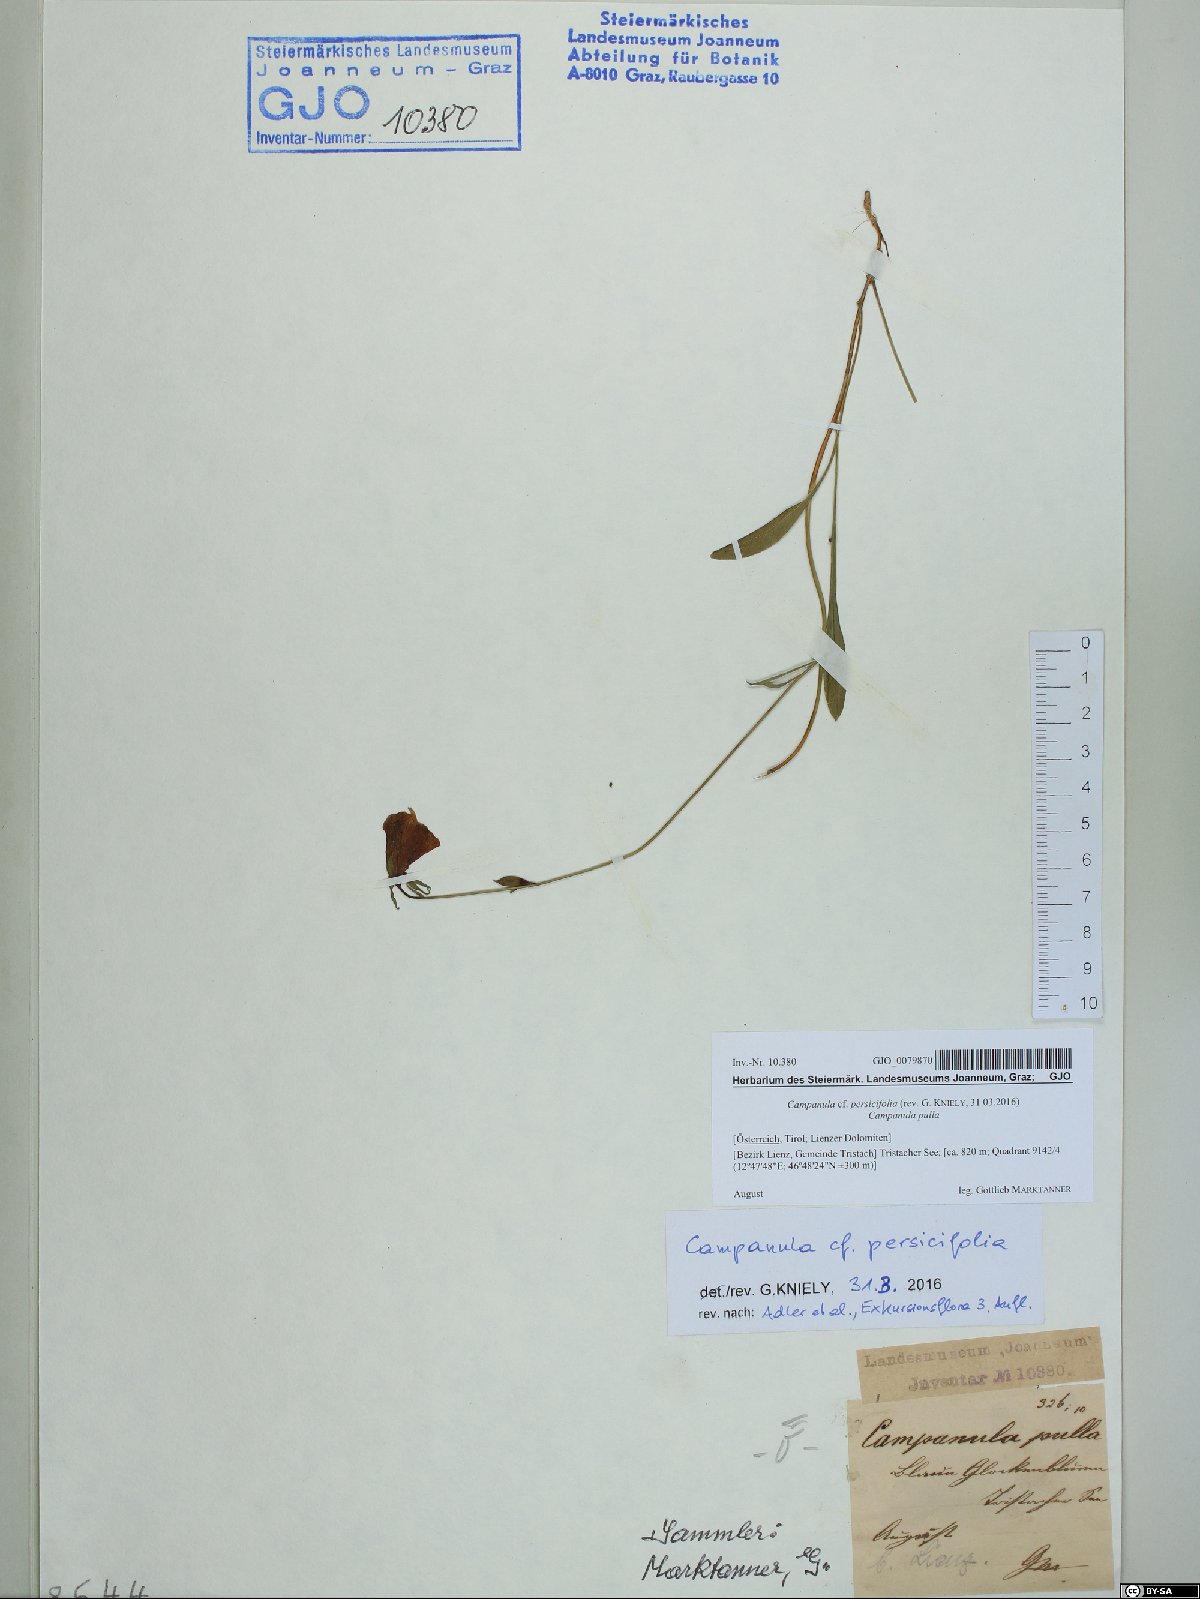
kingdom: Plantae
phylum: Tracheophyta
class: Magnoliopsida
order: Asterales
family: Campanulaceae
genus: Campanula
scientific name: Campanula persicifolia
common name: Peach-leaved bellflower
